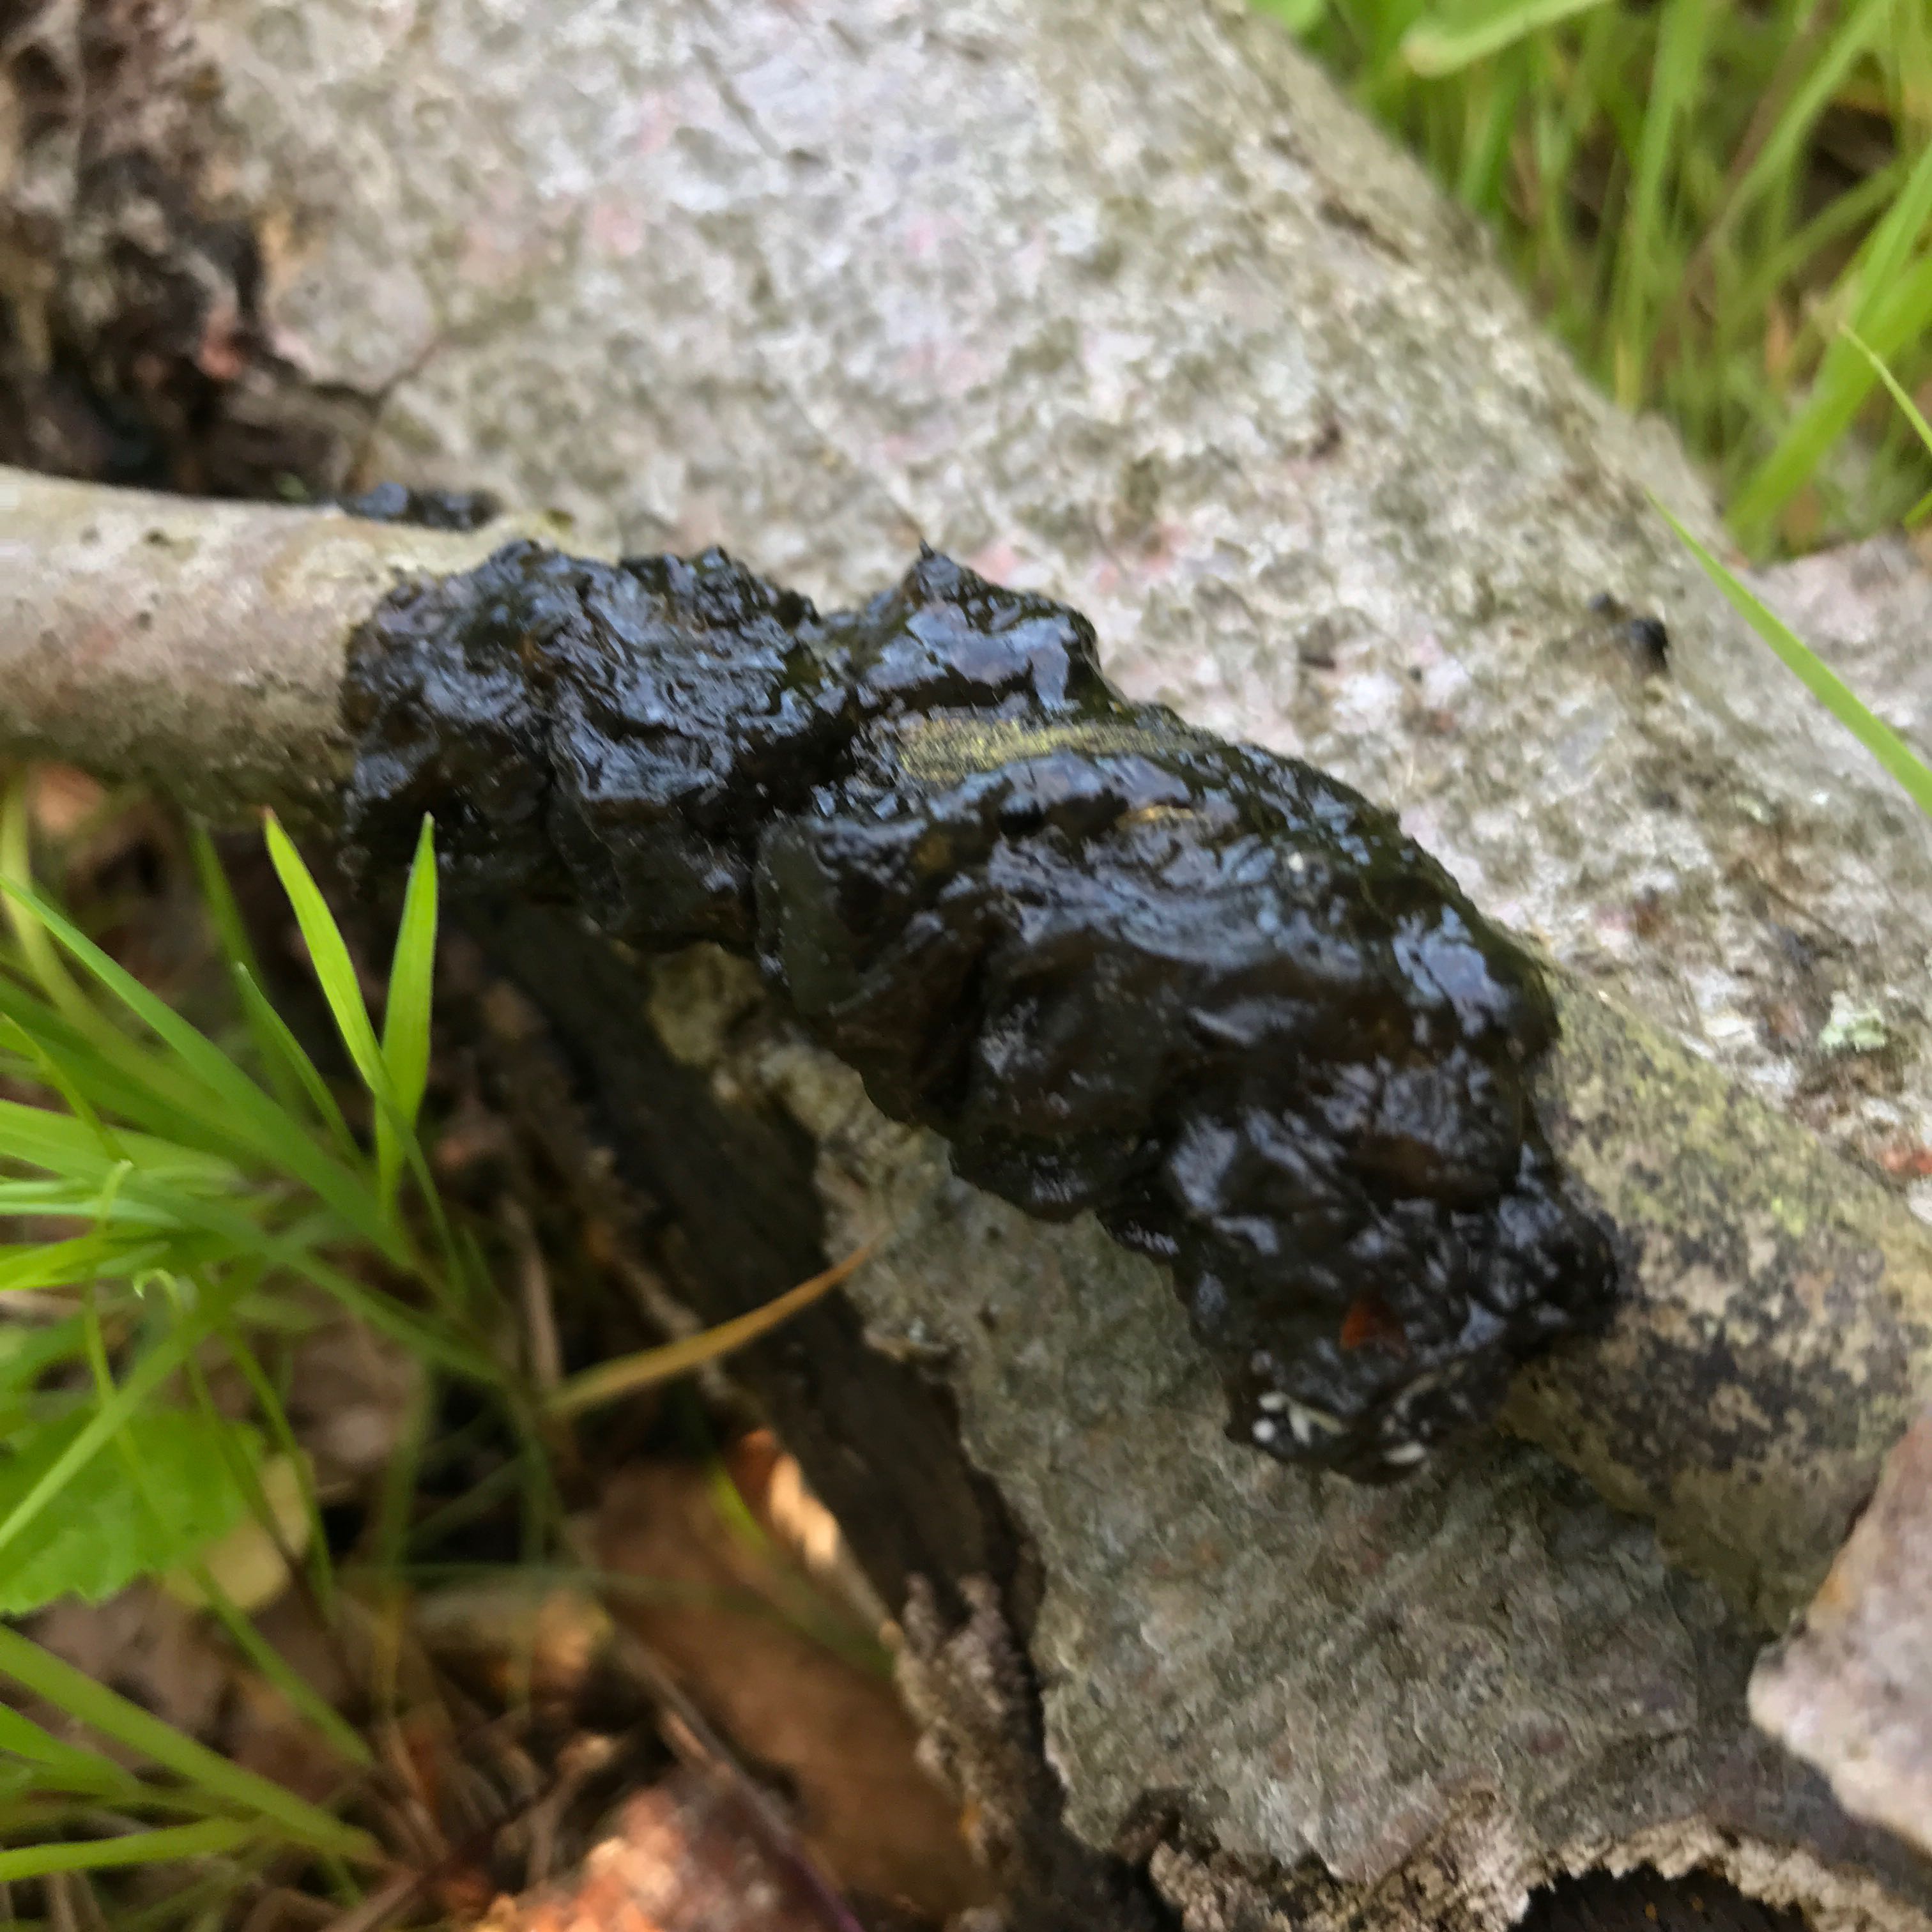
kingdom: Fungi
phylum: Basidiomycota
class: Agaricomycetes
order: Auriculariales
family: Auriculariaceae
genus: Exidia
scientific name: Exidia nigricans
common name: almindelig bævretop
